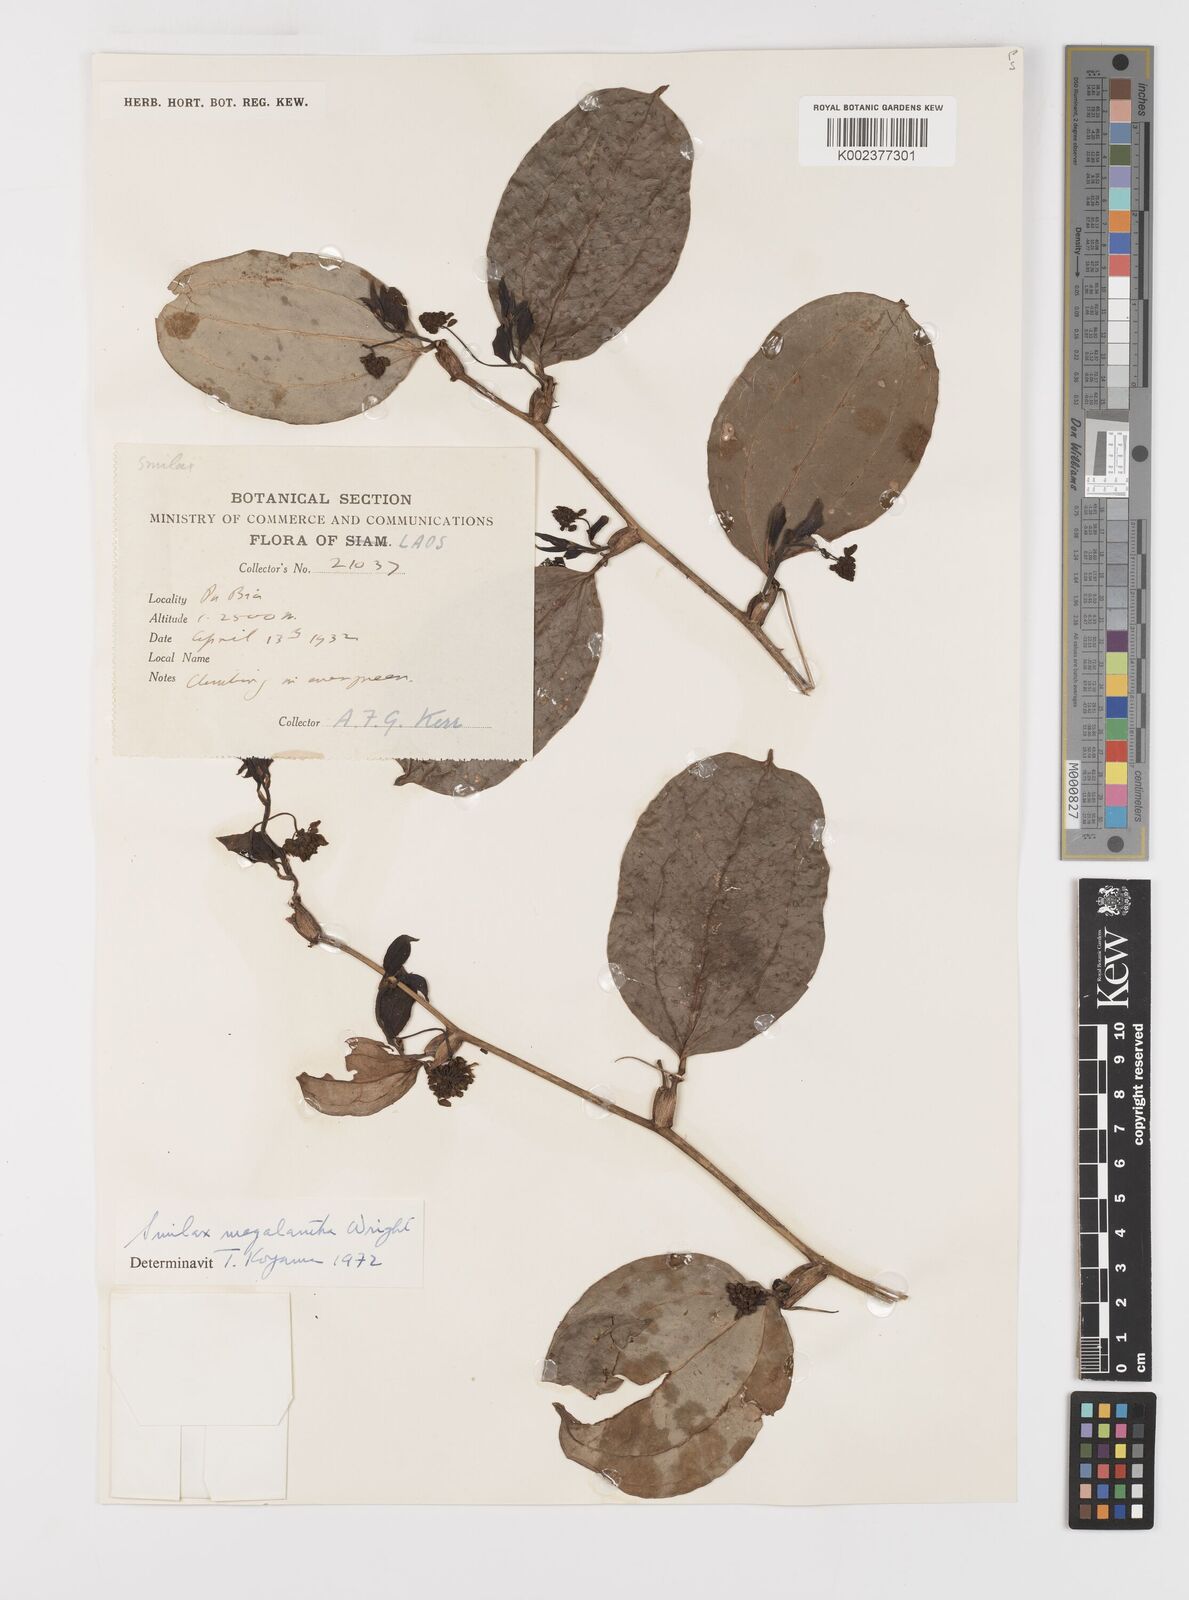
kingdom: Plantae
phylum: Tracheophyta
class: Liliopsida
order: Liliales
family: Smilacaceae
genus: Smilax
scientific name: Smilax megalantha
